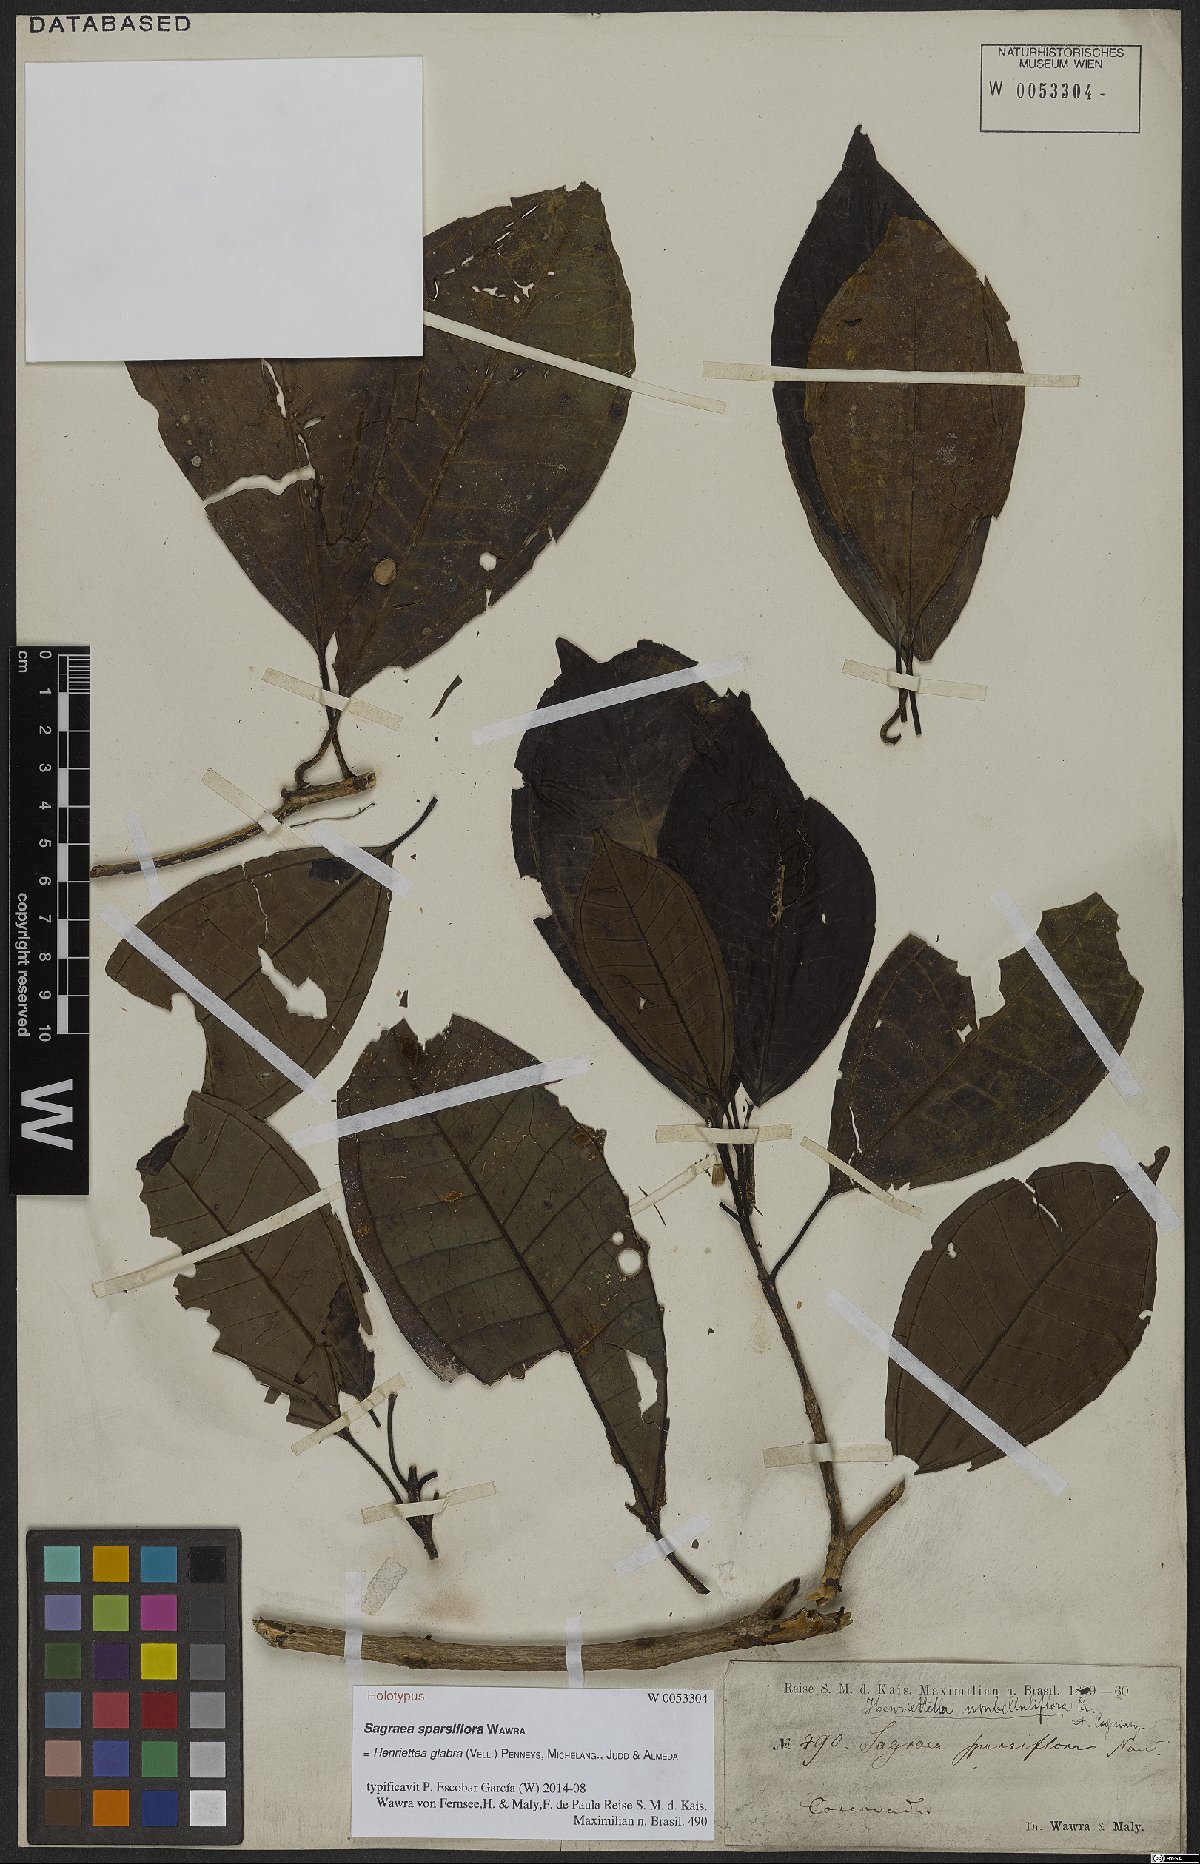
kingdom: Plantae
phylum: Tracheophyta
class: Magnoliopsida
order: Myrtales
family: Melastomataceae
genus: Henriettea
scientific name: Henriettea glabra
